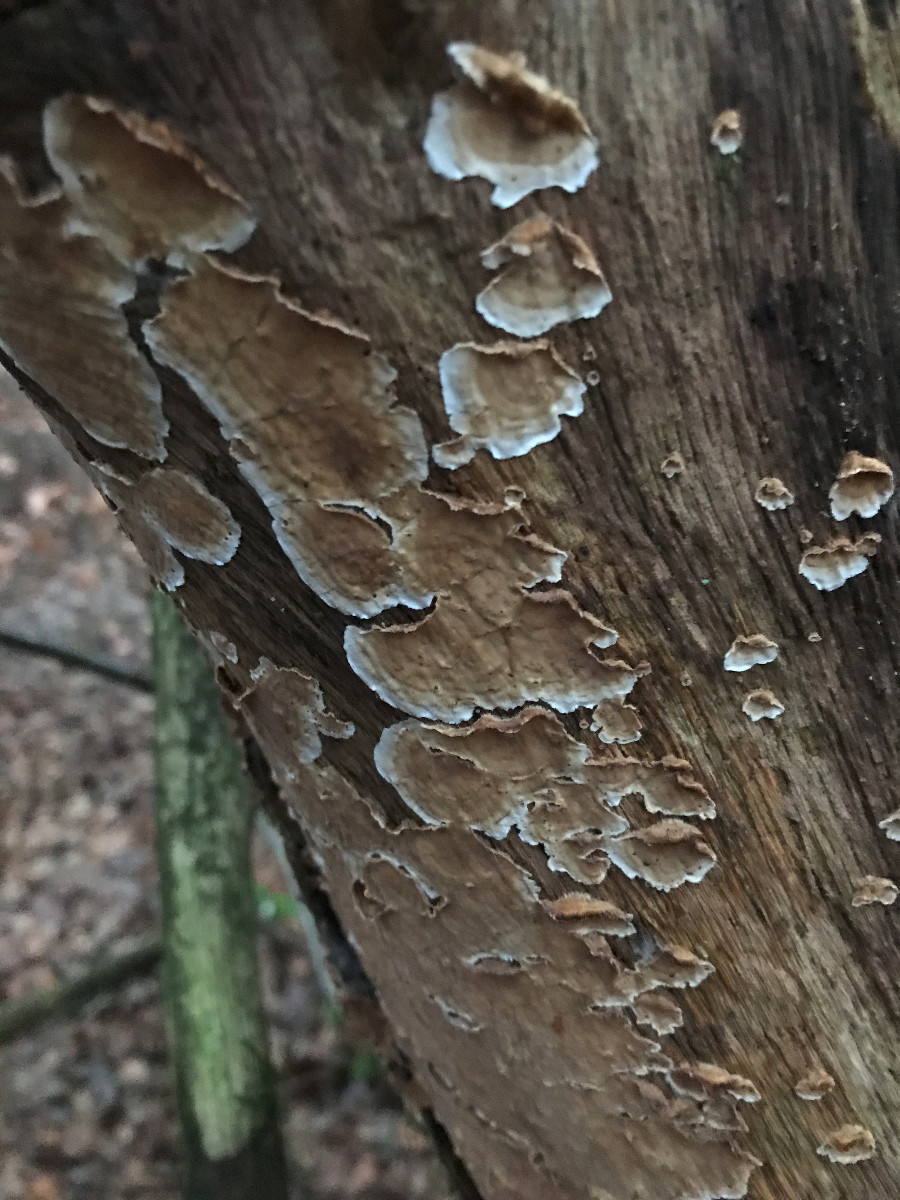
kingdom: Fungi
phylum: Basidiomycota
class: Agaricomycetes
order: Russulales
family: Stereaceae
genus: Stereum
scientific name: Stereum
